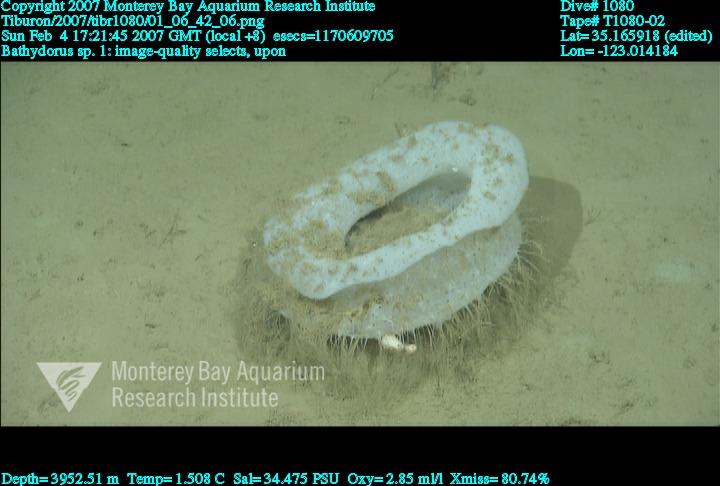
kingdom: Animalia
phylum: Porifera
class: Hexactinellida
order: Lyssacinosida
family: Rossellidae
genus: Bathydorus
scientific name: Bathydorus
